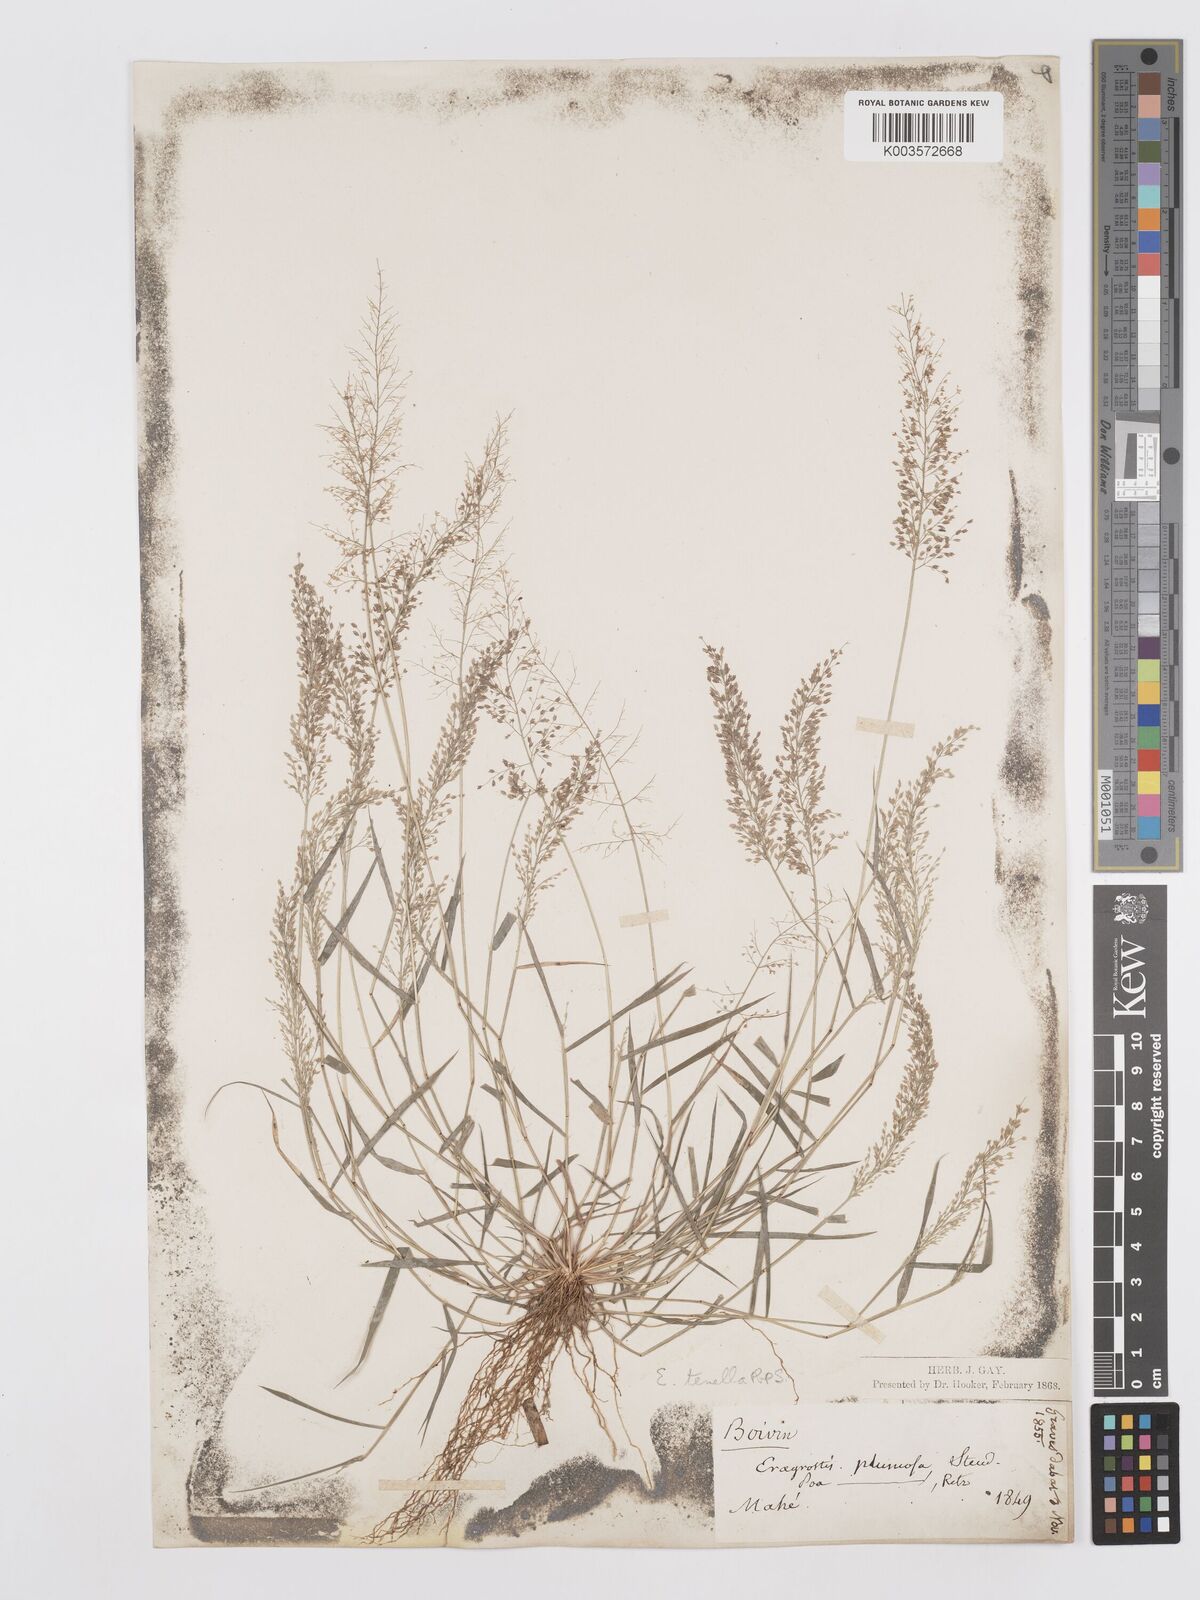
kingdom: Plantae
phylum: Tracheophyta
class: Liliopsida
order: Poales
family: Poaceae
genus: Eragrostis
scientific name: Eragrostis tenella
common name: Japanese lovegrass
